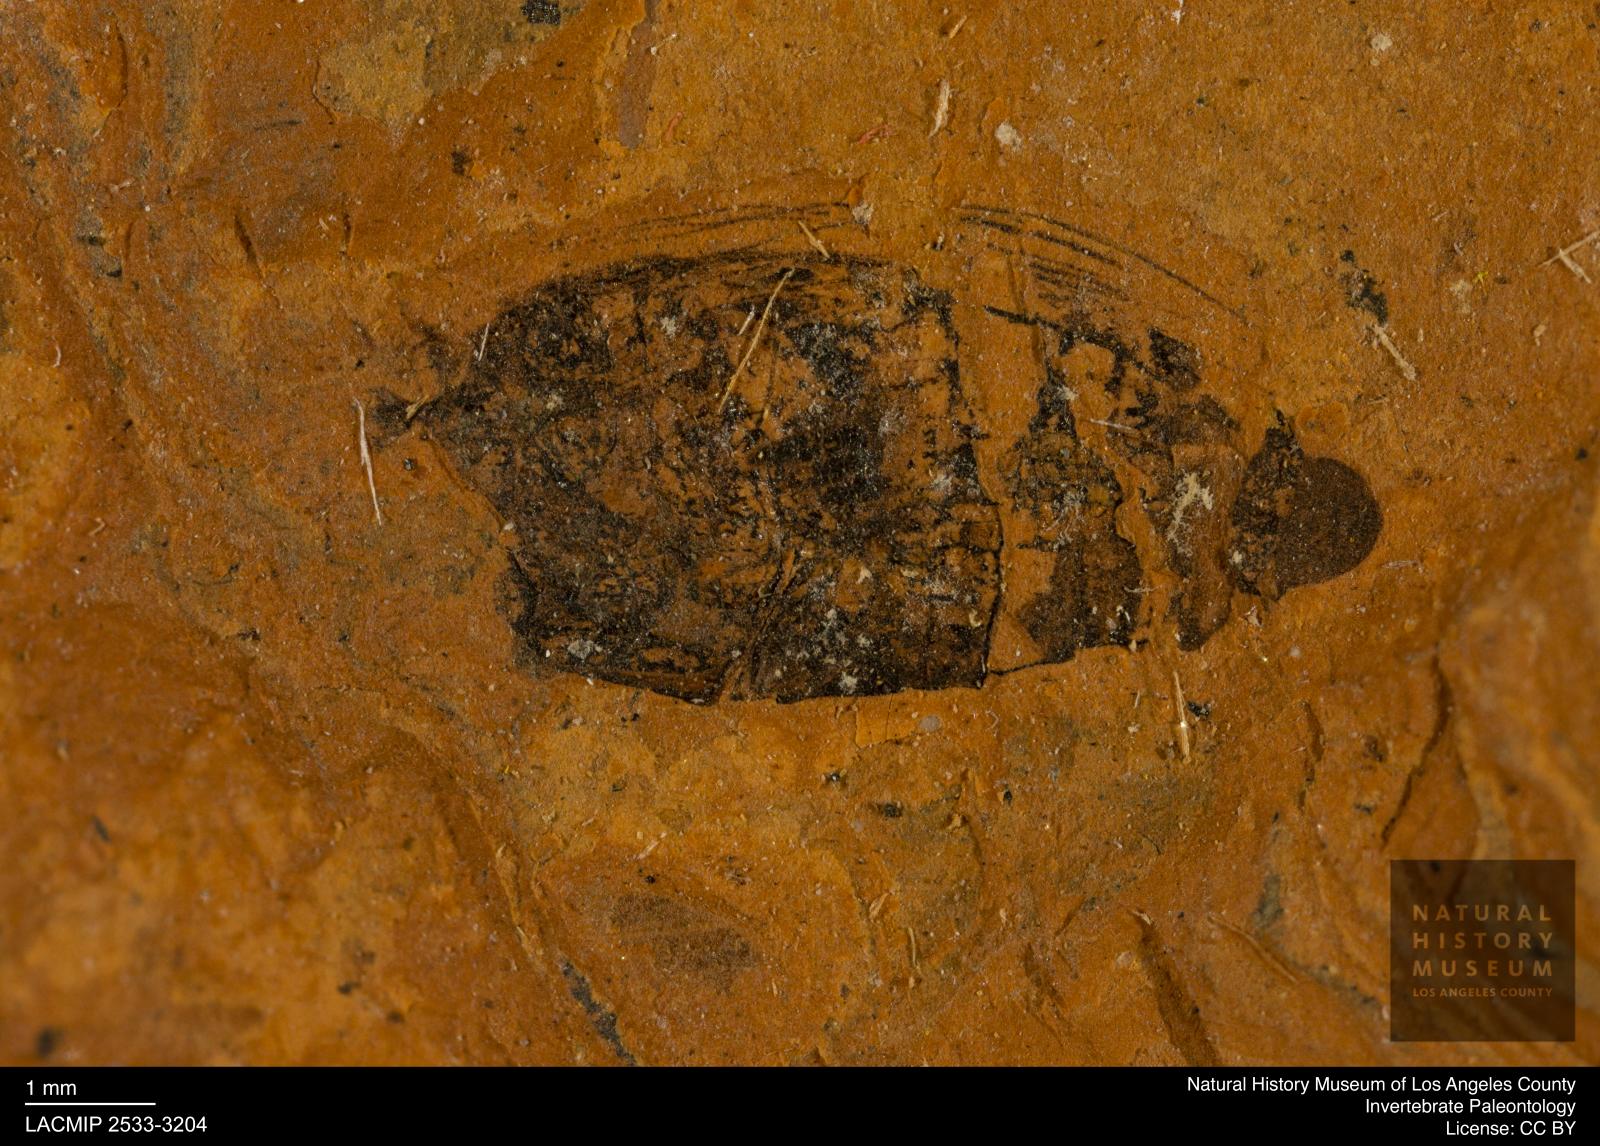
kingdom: Animalia
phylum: Arthropoda
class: Insecta
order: Coleoptera
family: Hydrophilidae
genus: Berosus
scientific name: Berosus morticinus
